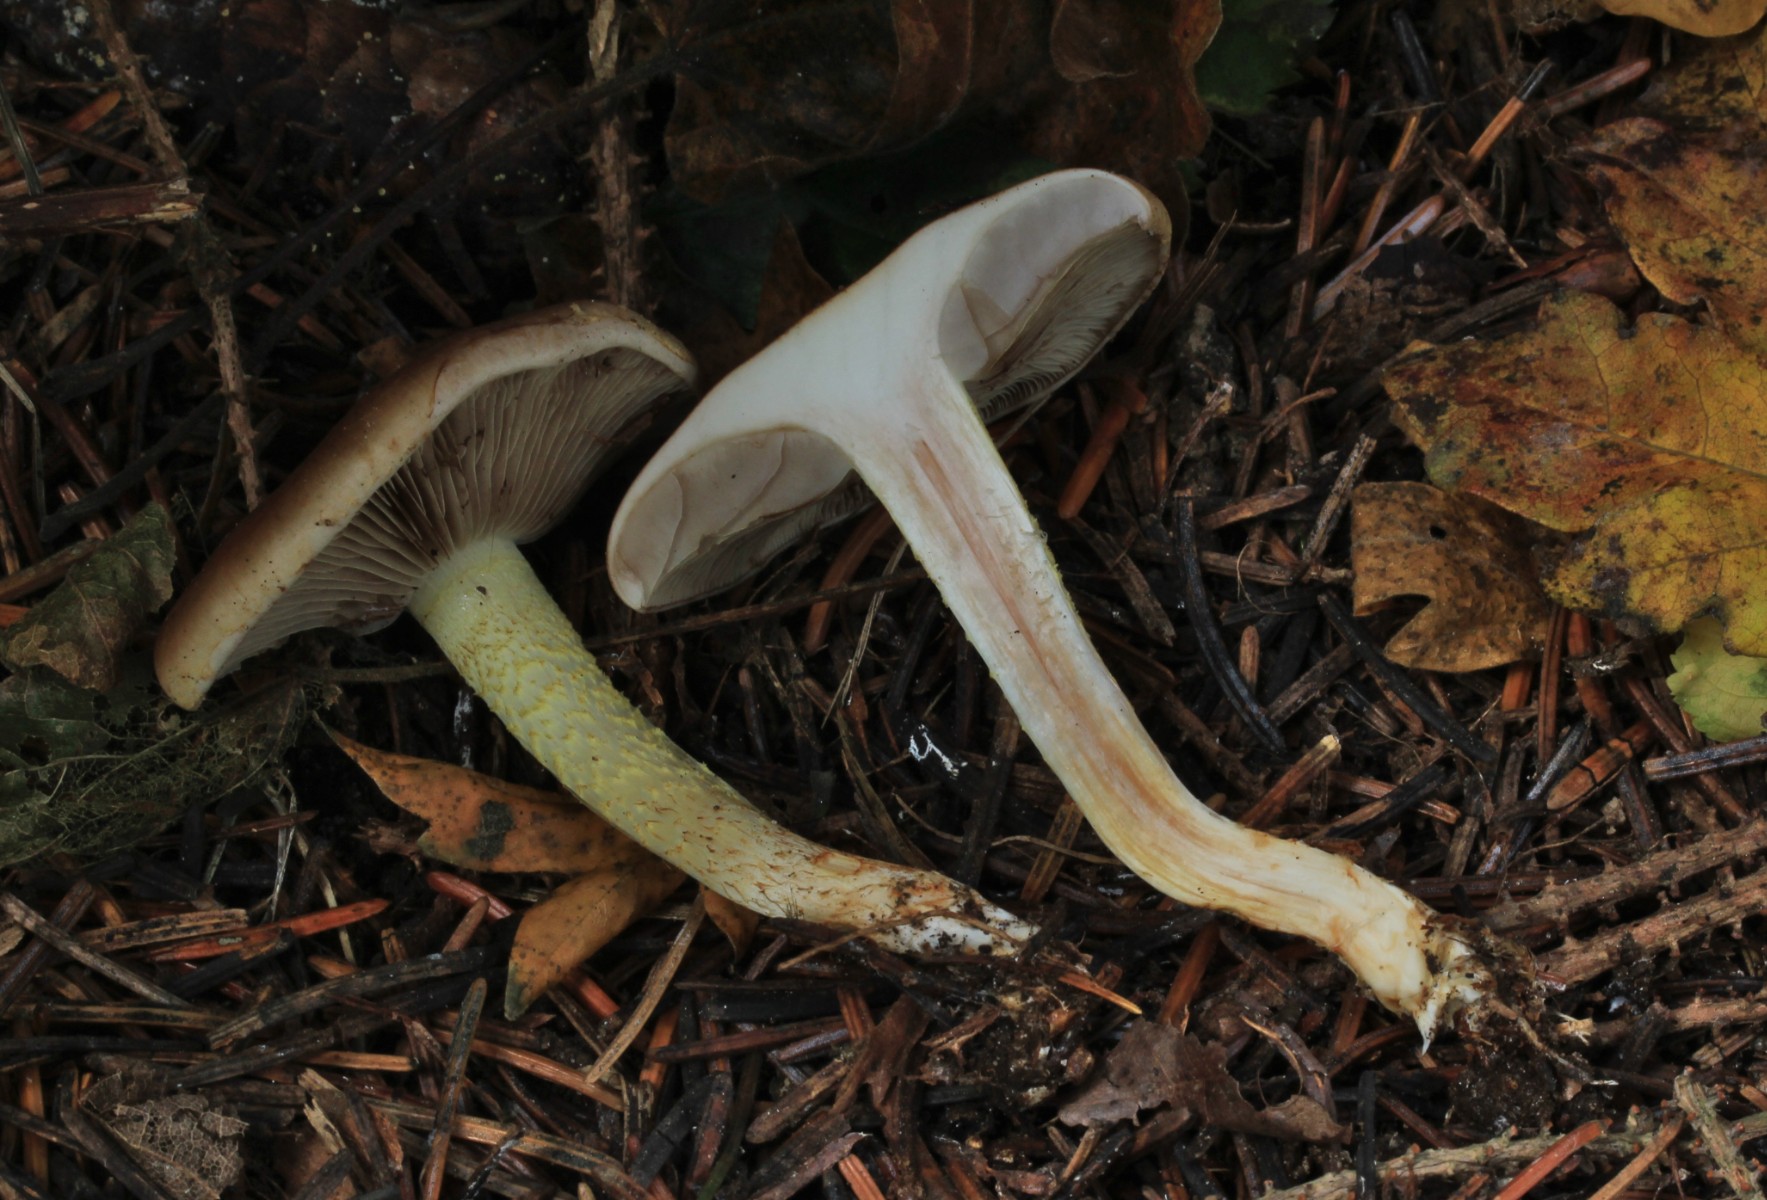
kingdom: Fungi
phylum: Basidiomycota
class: Agaricomycetes
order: Agaricales
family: Strophariaceae
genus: Pholiota
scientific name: Pholiota mixta
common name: nåle-skælhat
